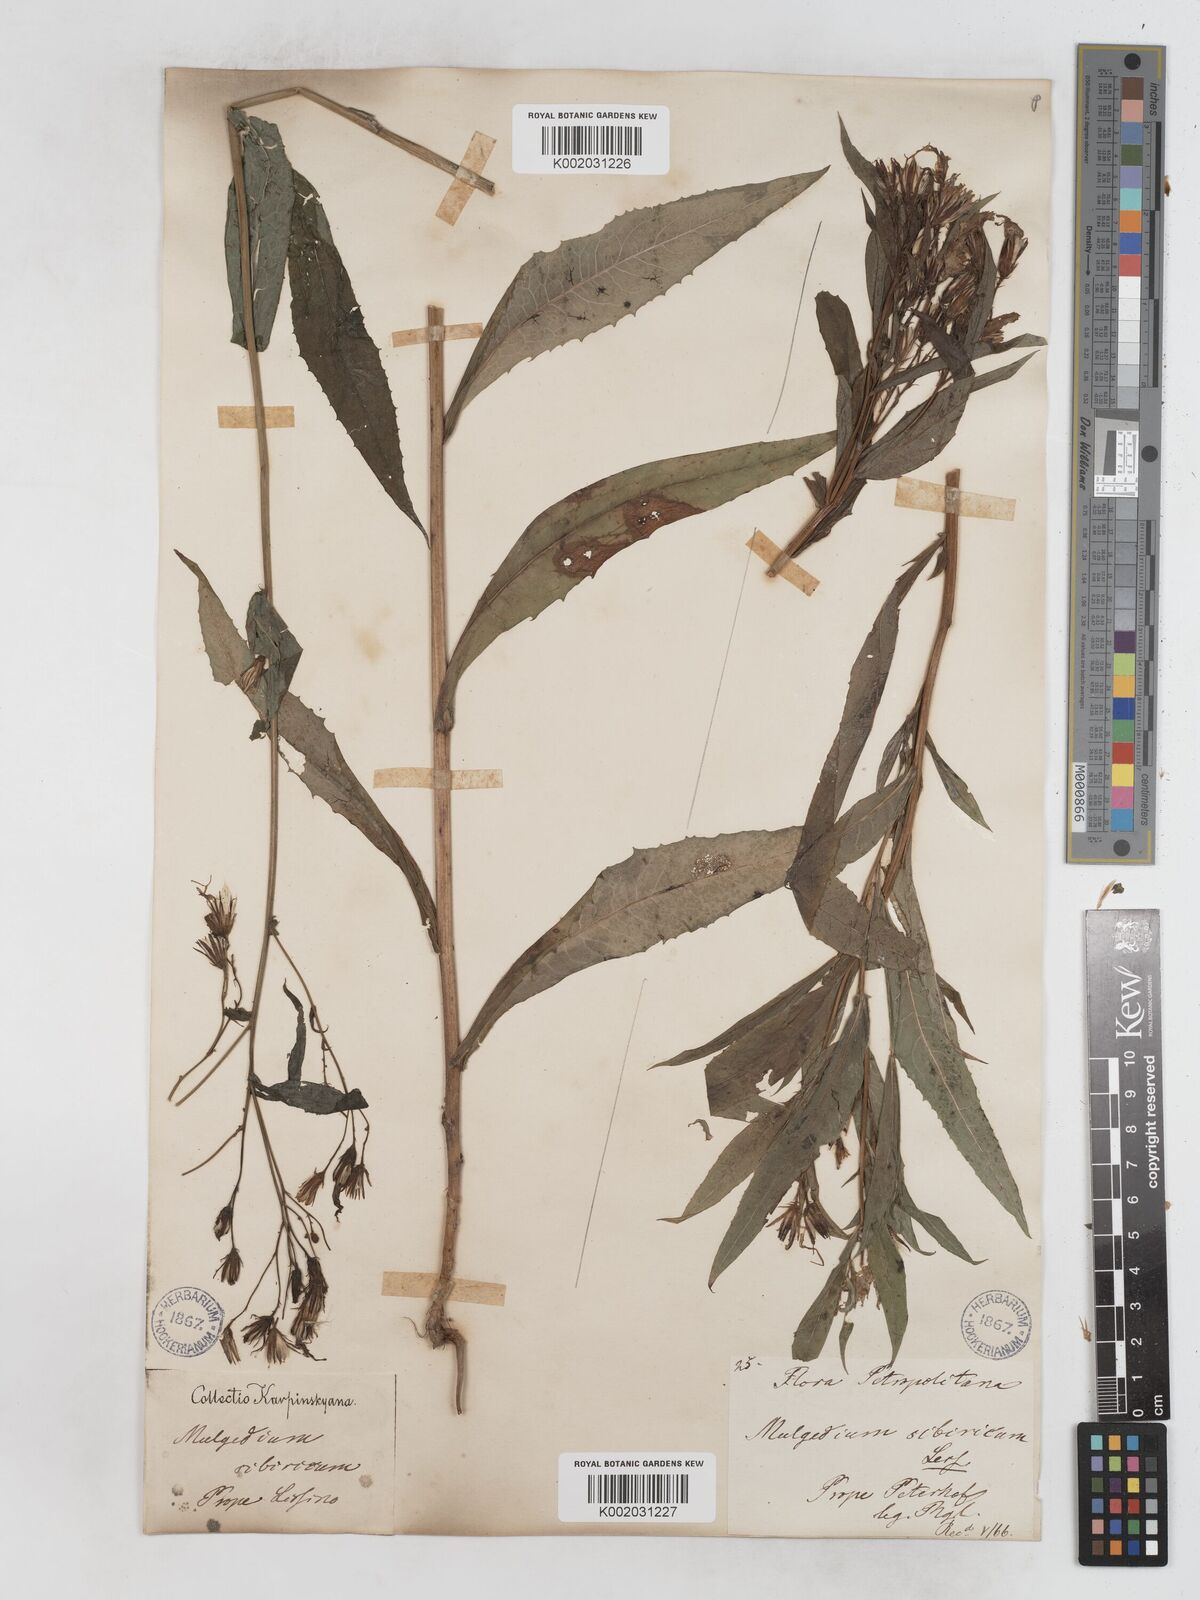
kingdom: Plantae
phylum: Tracheophyta
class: Magnoliopsida
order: Asterales
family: Asteraceae
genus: Lactuca
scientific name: Lactuca sibirica
